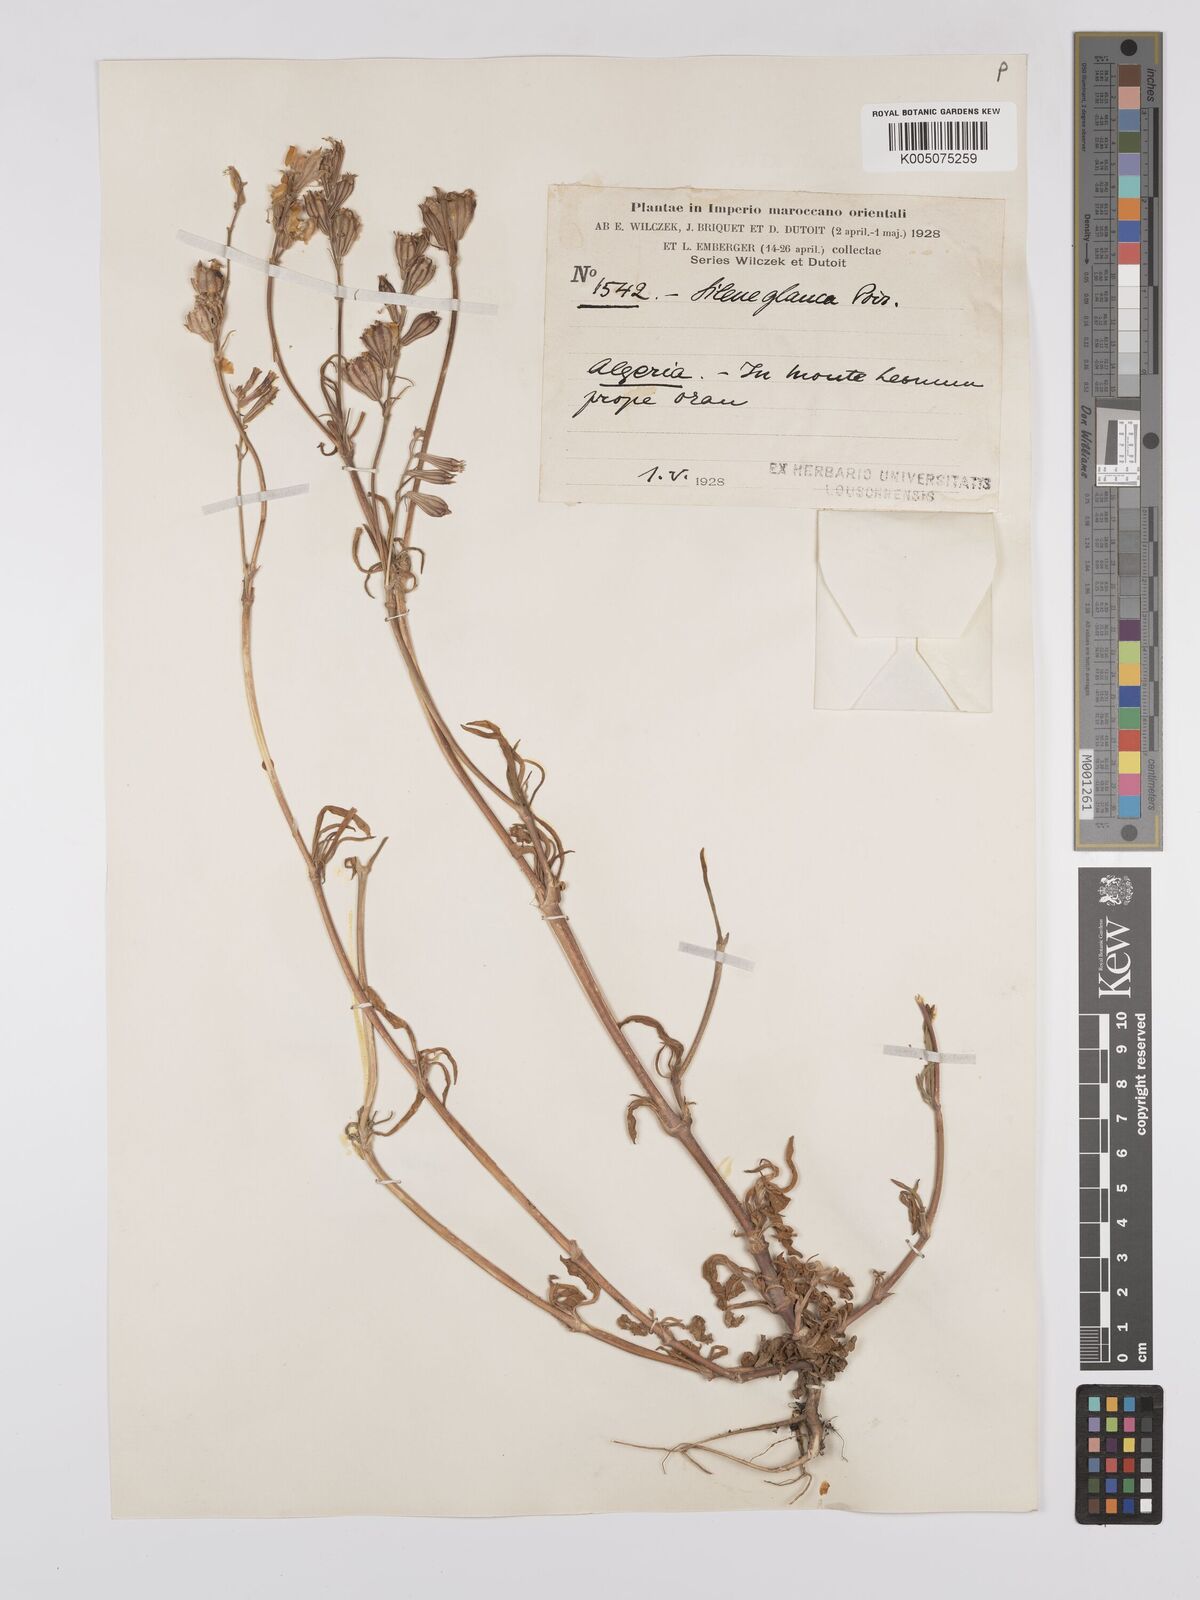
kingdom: Plantae
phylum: Tracheophyta
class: Magnoliopsida
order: Caryophyllales
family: Caryophyllaceae
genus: Silene
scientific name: Silene secundiflora
